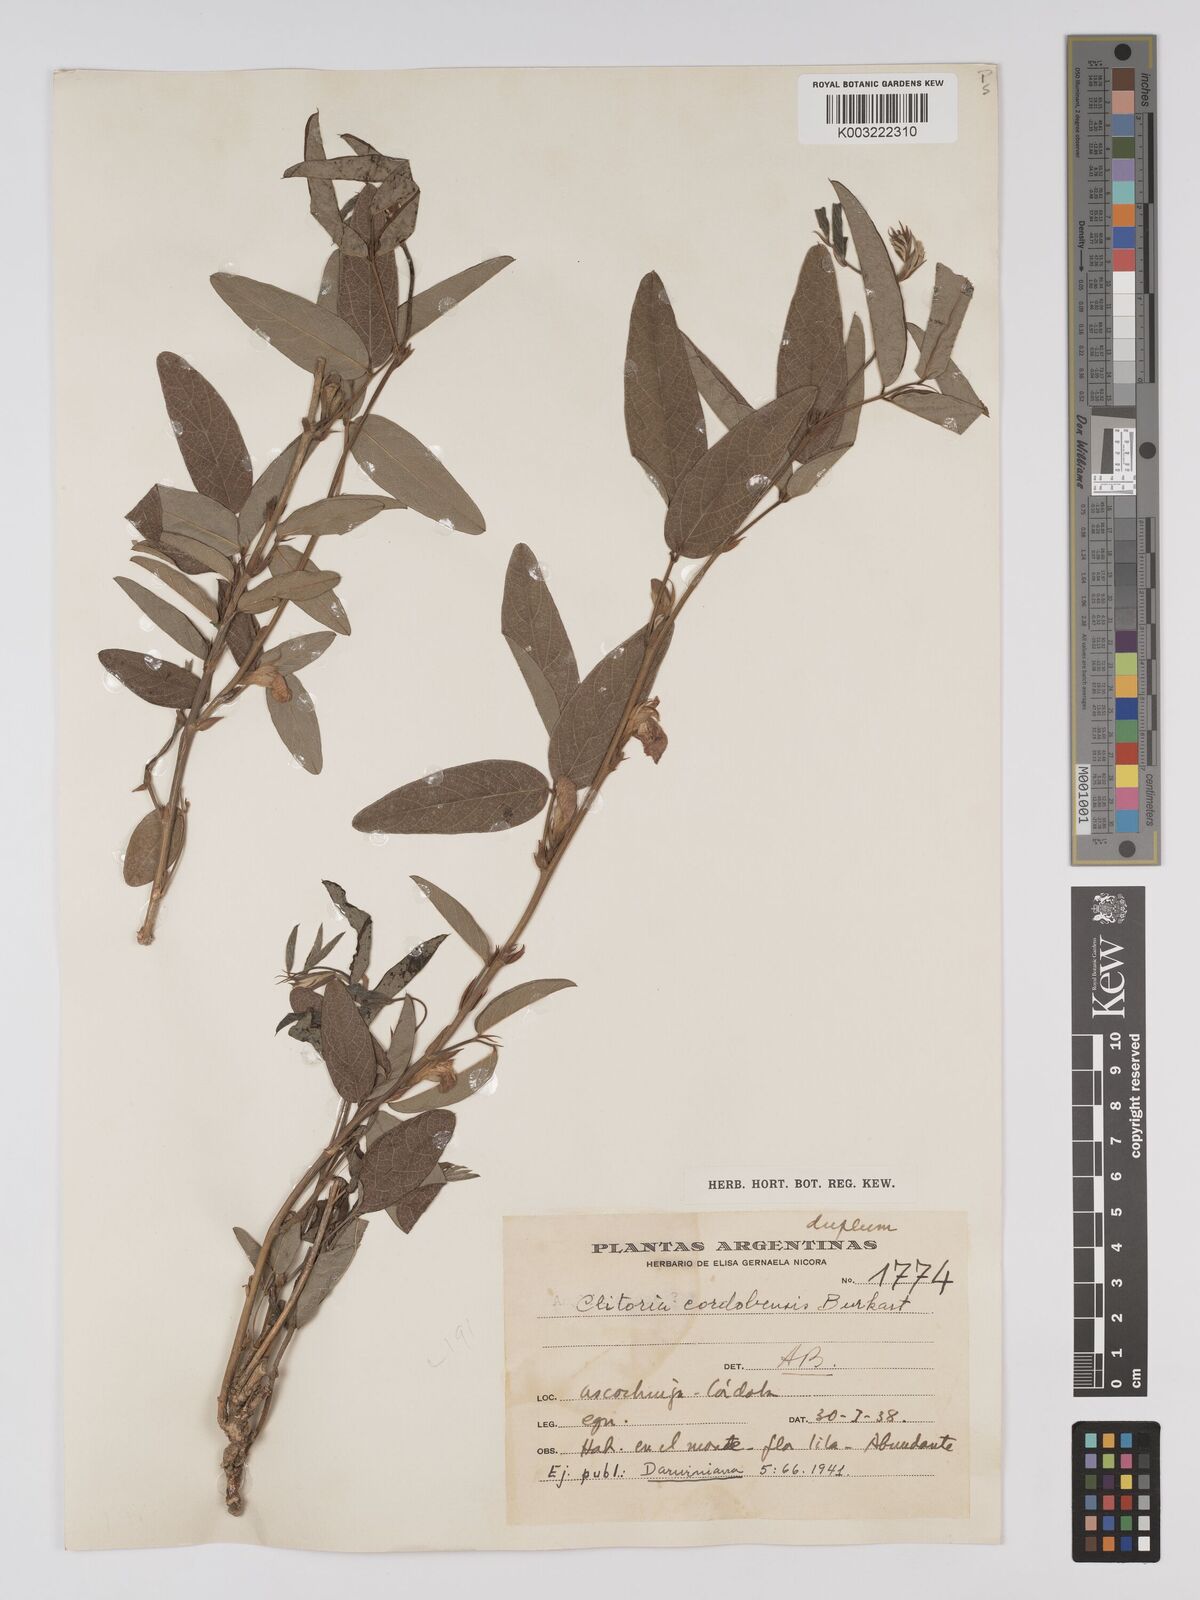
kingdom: Plantae
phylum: Tracheophyta
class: Magnoliopsida
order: Fabales
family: Fabaceae
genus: Clitoria
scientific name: Clitoria cordobensis
